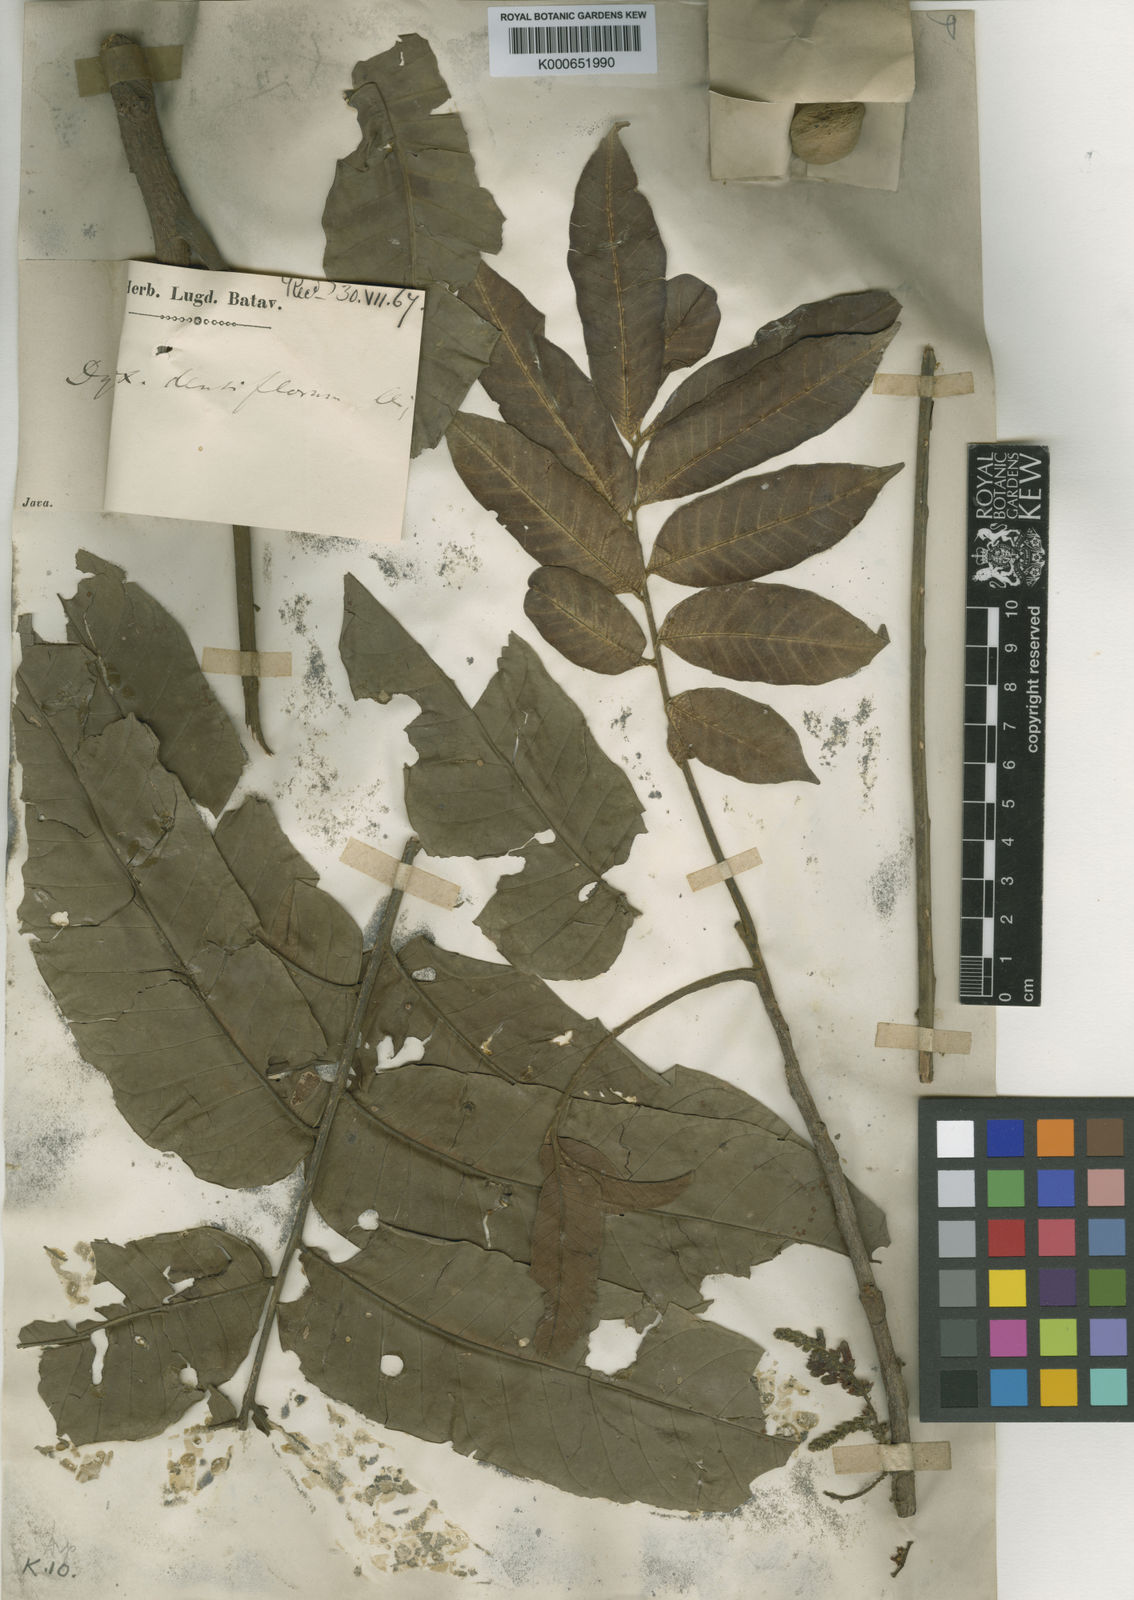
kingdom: Plantae
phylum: Tracheophyta
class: Magnoliopsida
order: Sapindales
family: Meliaceae
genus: Epicharis
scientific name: Epicharis densiflora
